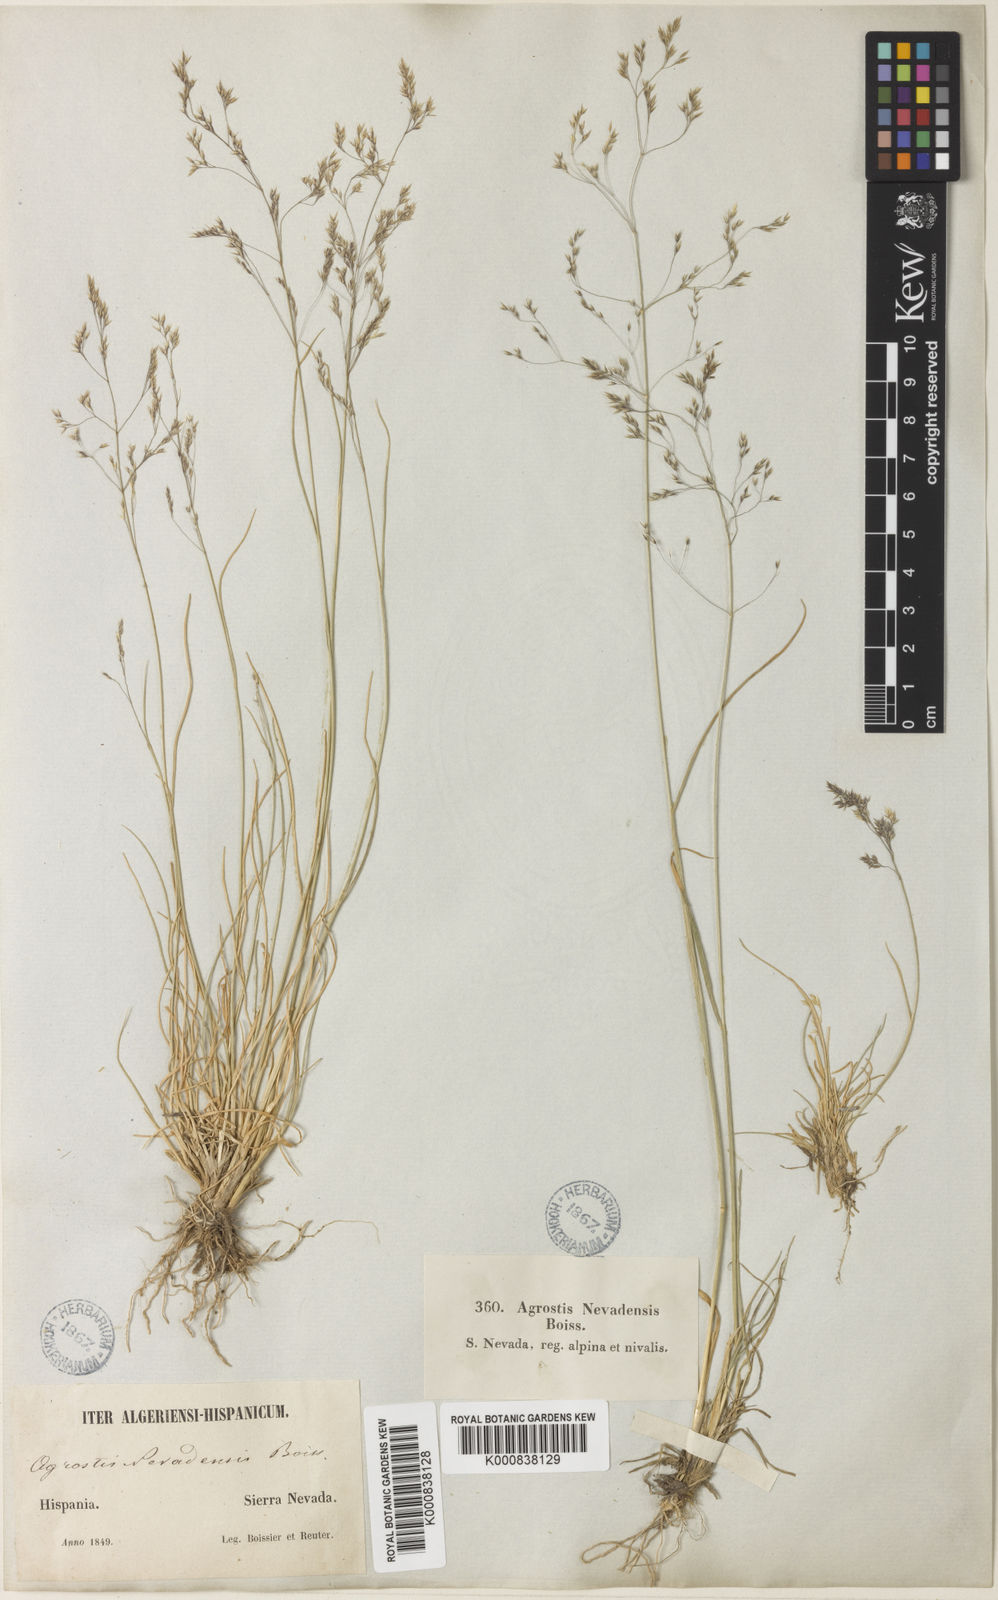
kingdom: Plantae
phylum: Tracheophyta
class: Liliopsida
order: Poales
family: Poaceae
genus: Agrostis
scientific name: Agrostis nevadensis
